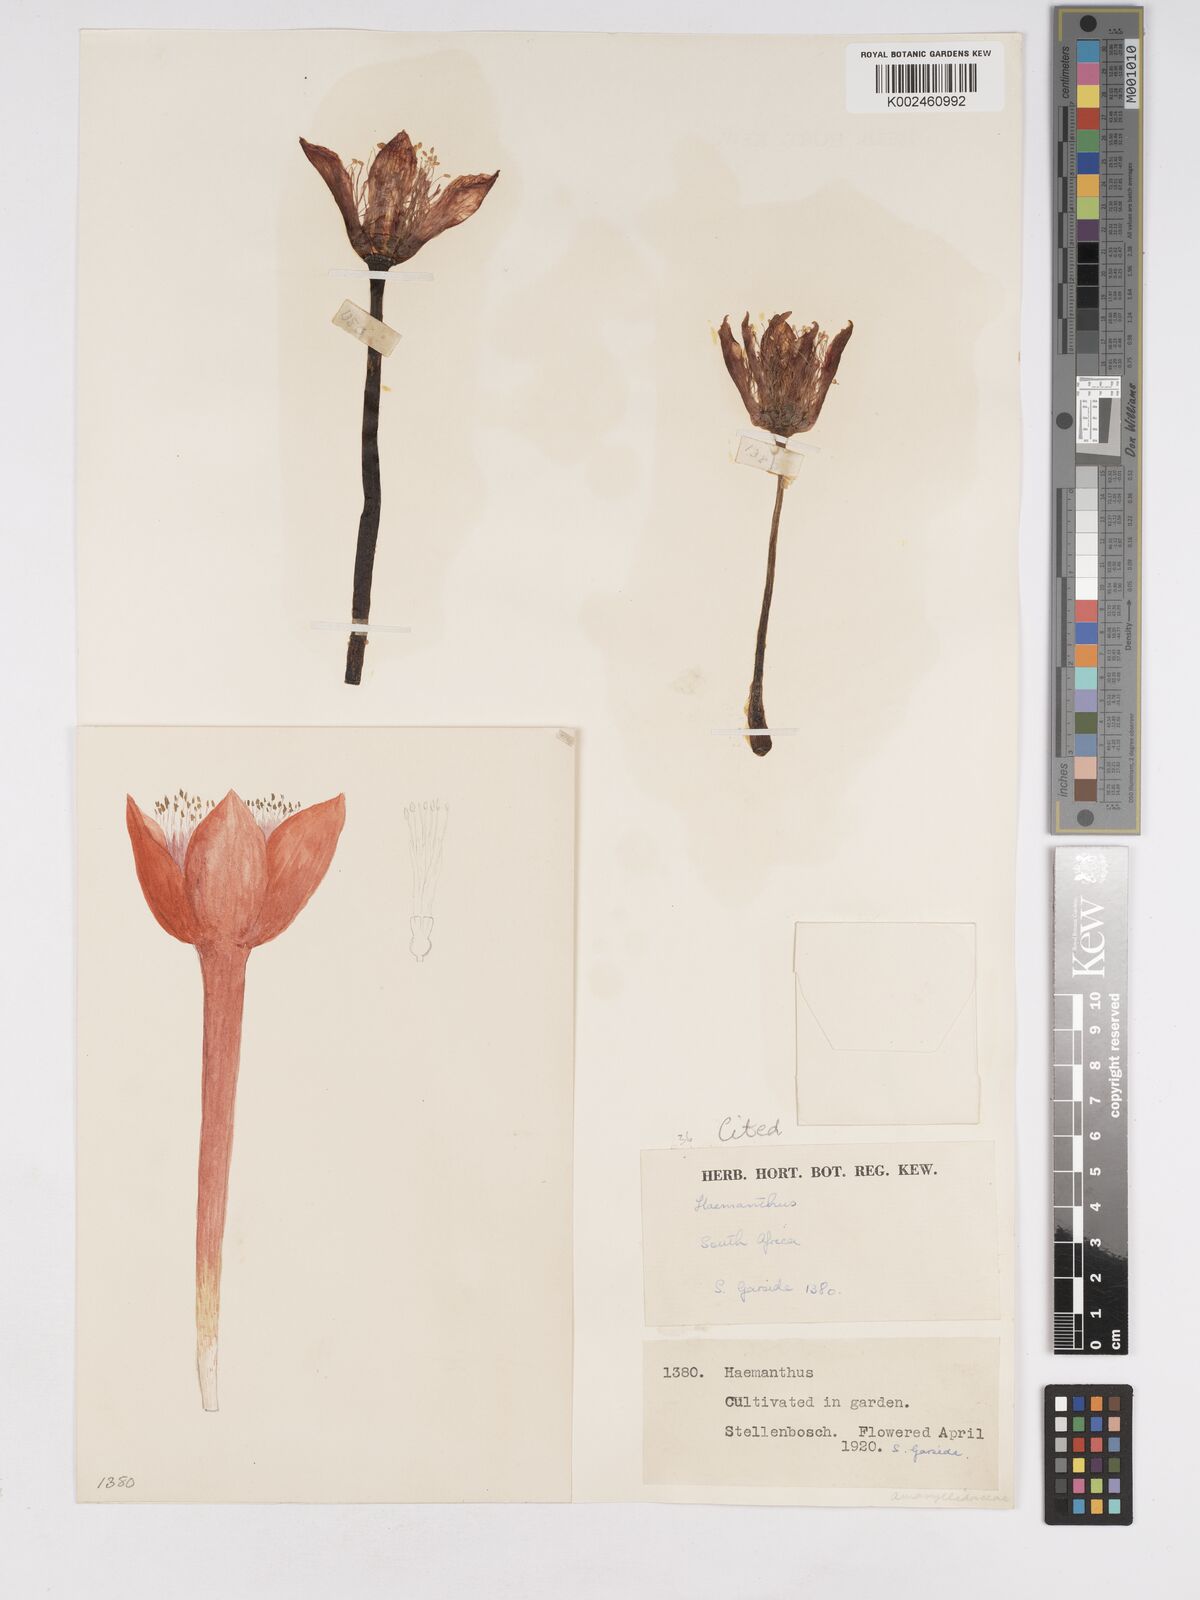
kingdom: Plantae
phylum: Tracheophyta
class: Liliopsida
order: Asparagales
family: Amaryllidaceae
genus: Haemanthus
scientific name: Haemanthus pubescens
